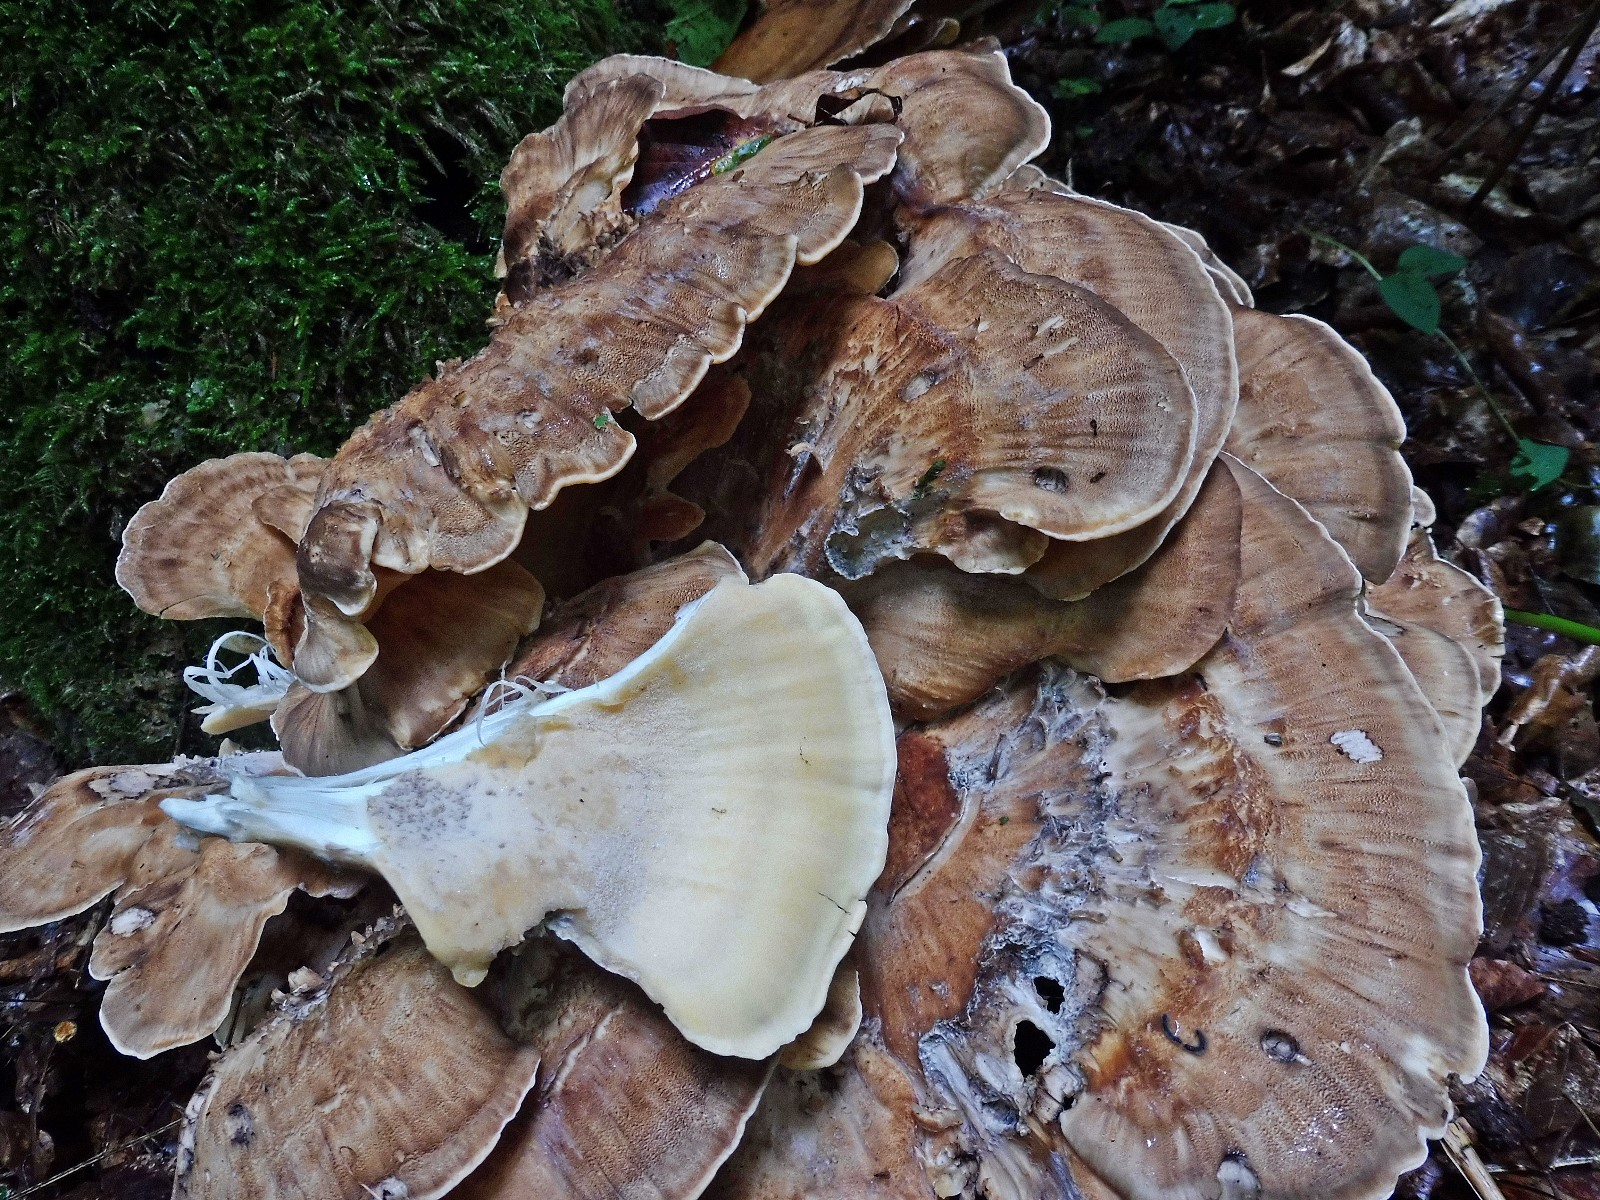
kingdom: Fungi
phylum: Basidiomycota
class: Agaricomycetes
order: Polyporales
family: Meripilaceae
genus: Meripilus
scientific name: Meripilus giganteus
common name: kæmpeporesvamp
